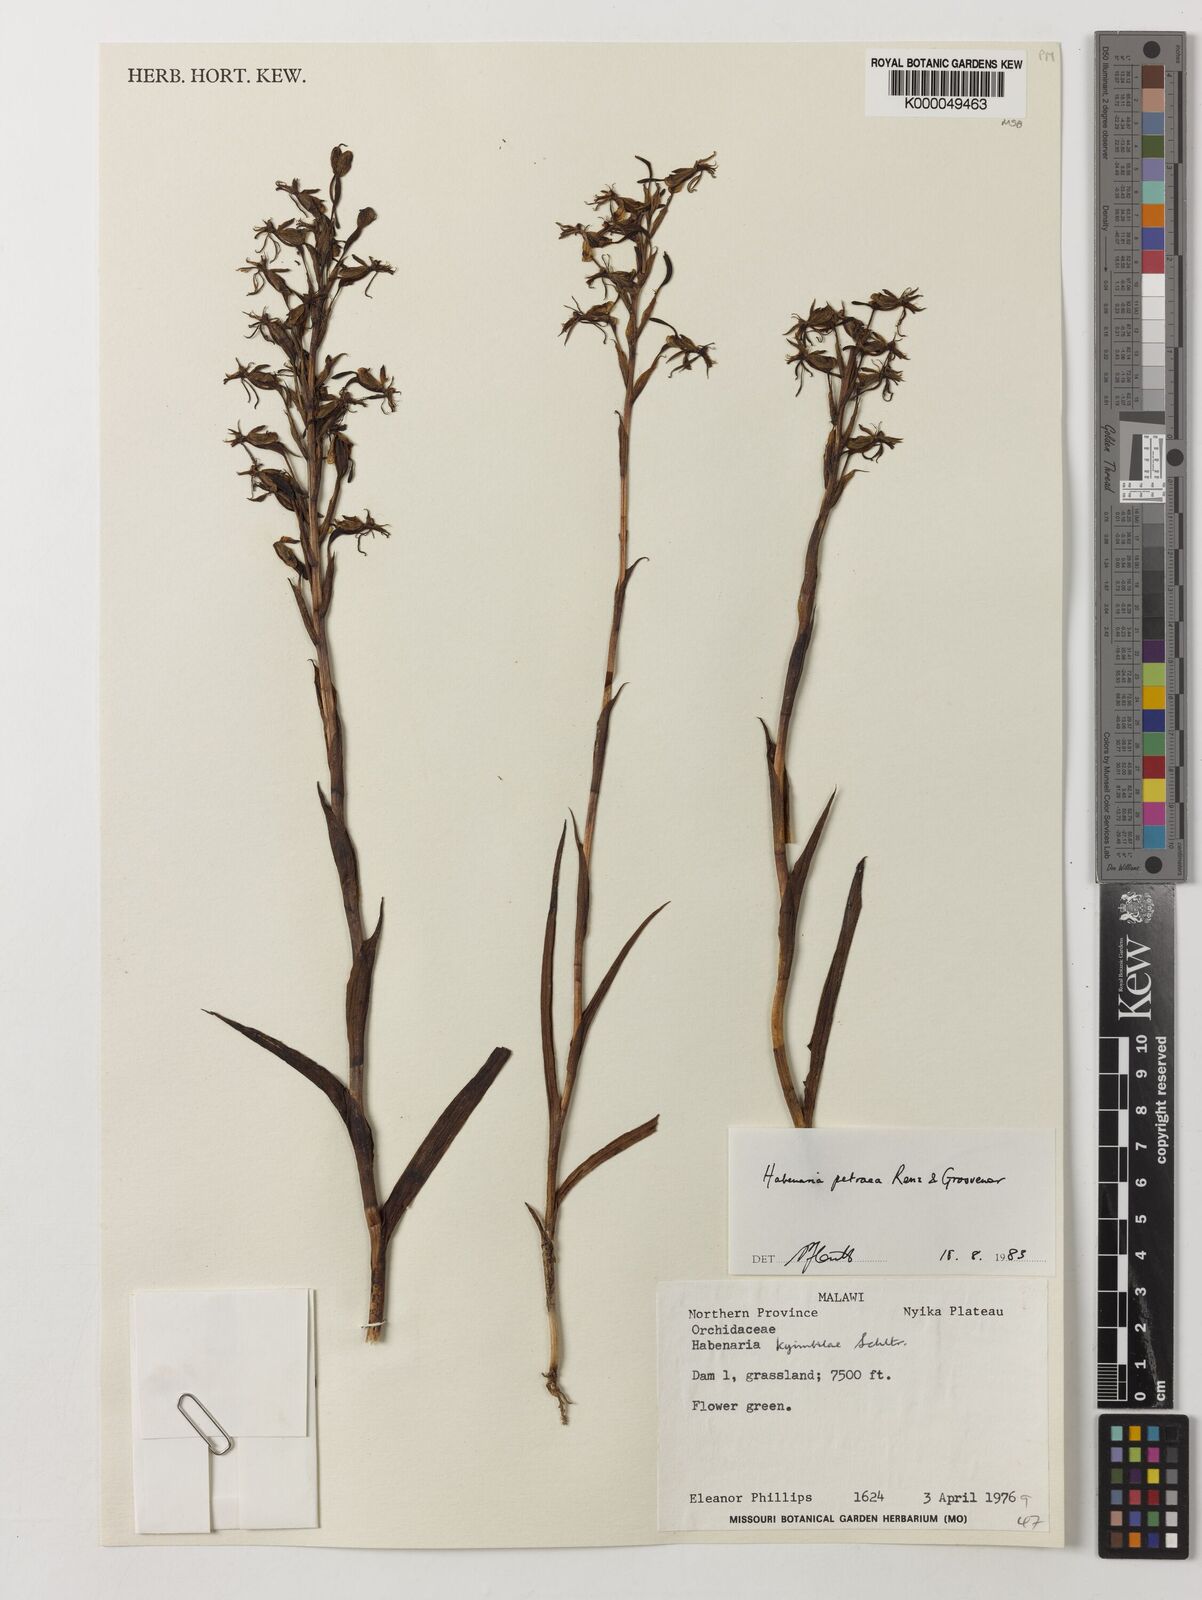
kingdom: Plantae
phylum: Tracheophyta
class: Liliopsida
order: Asparagales
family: Orchidaceae
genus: Habenaria
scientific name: Habenaria petraea
